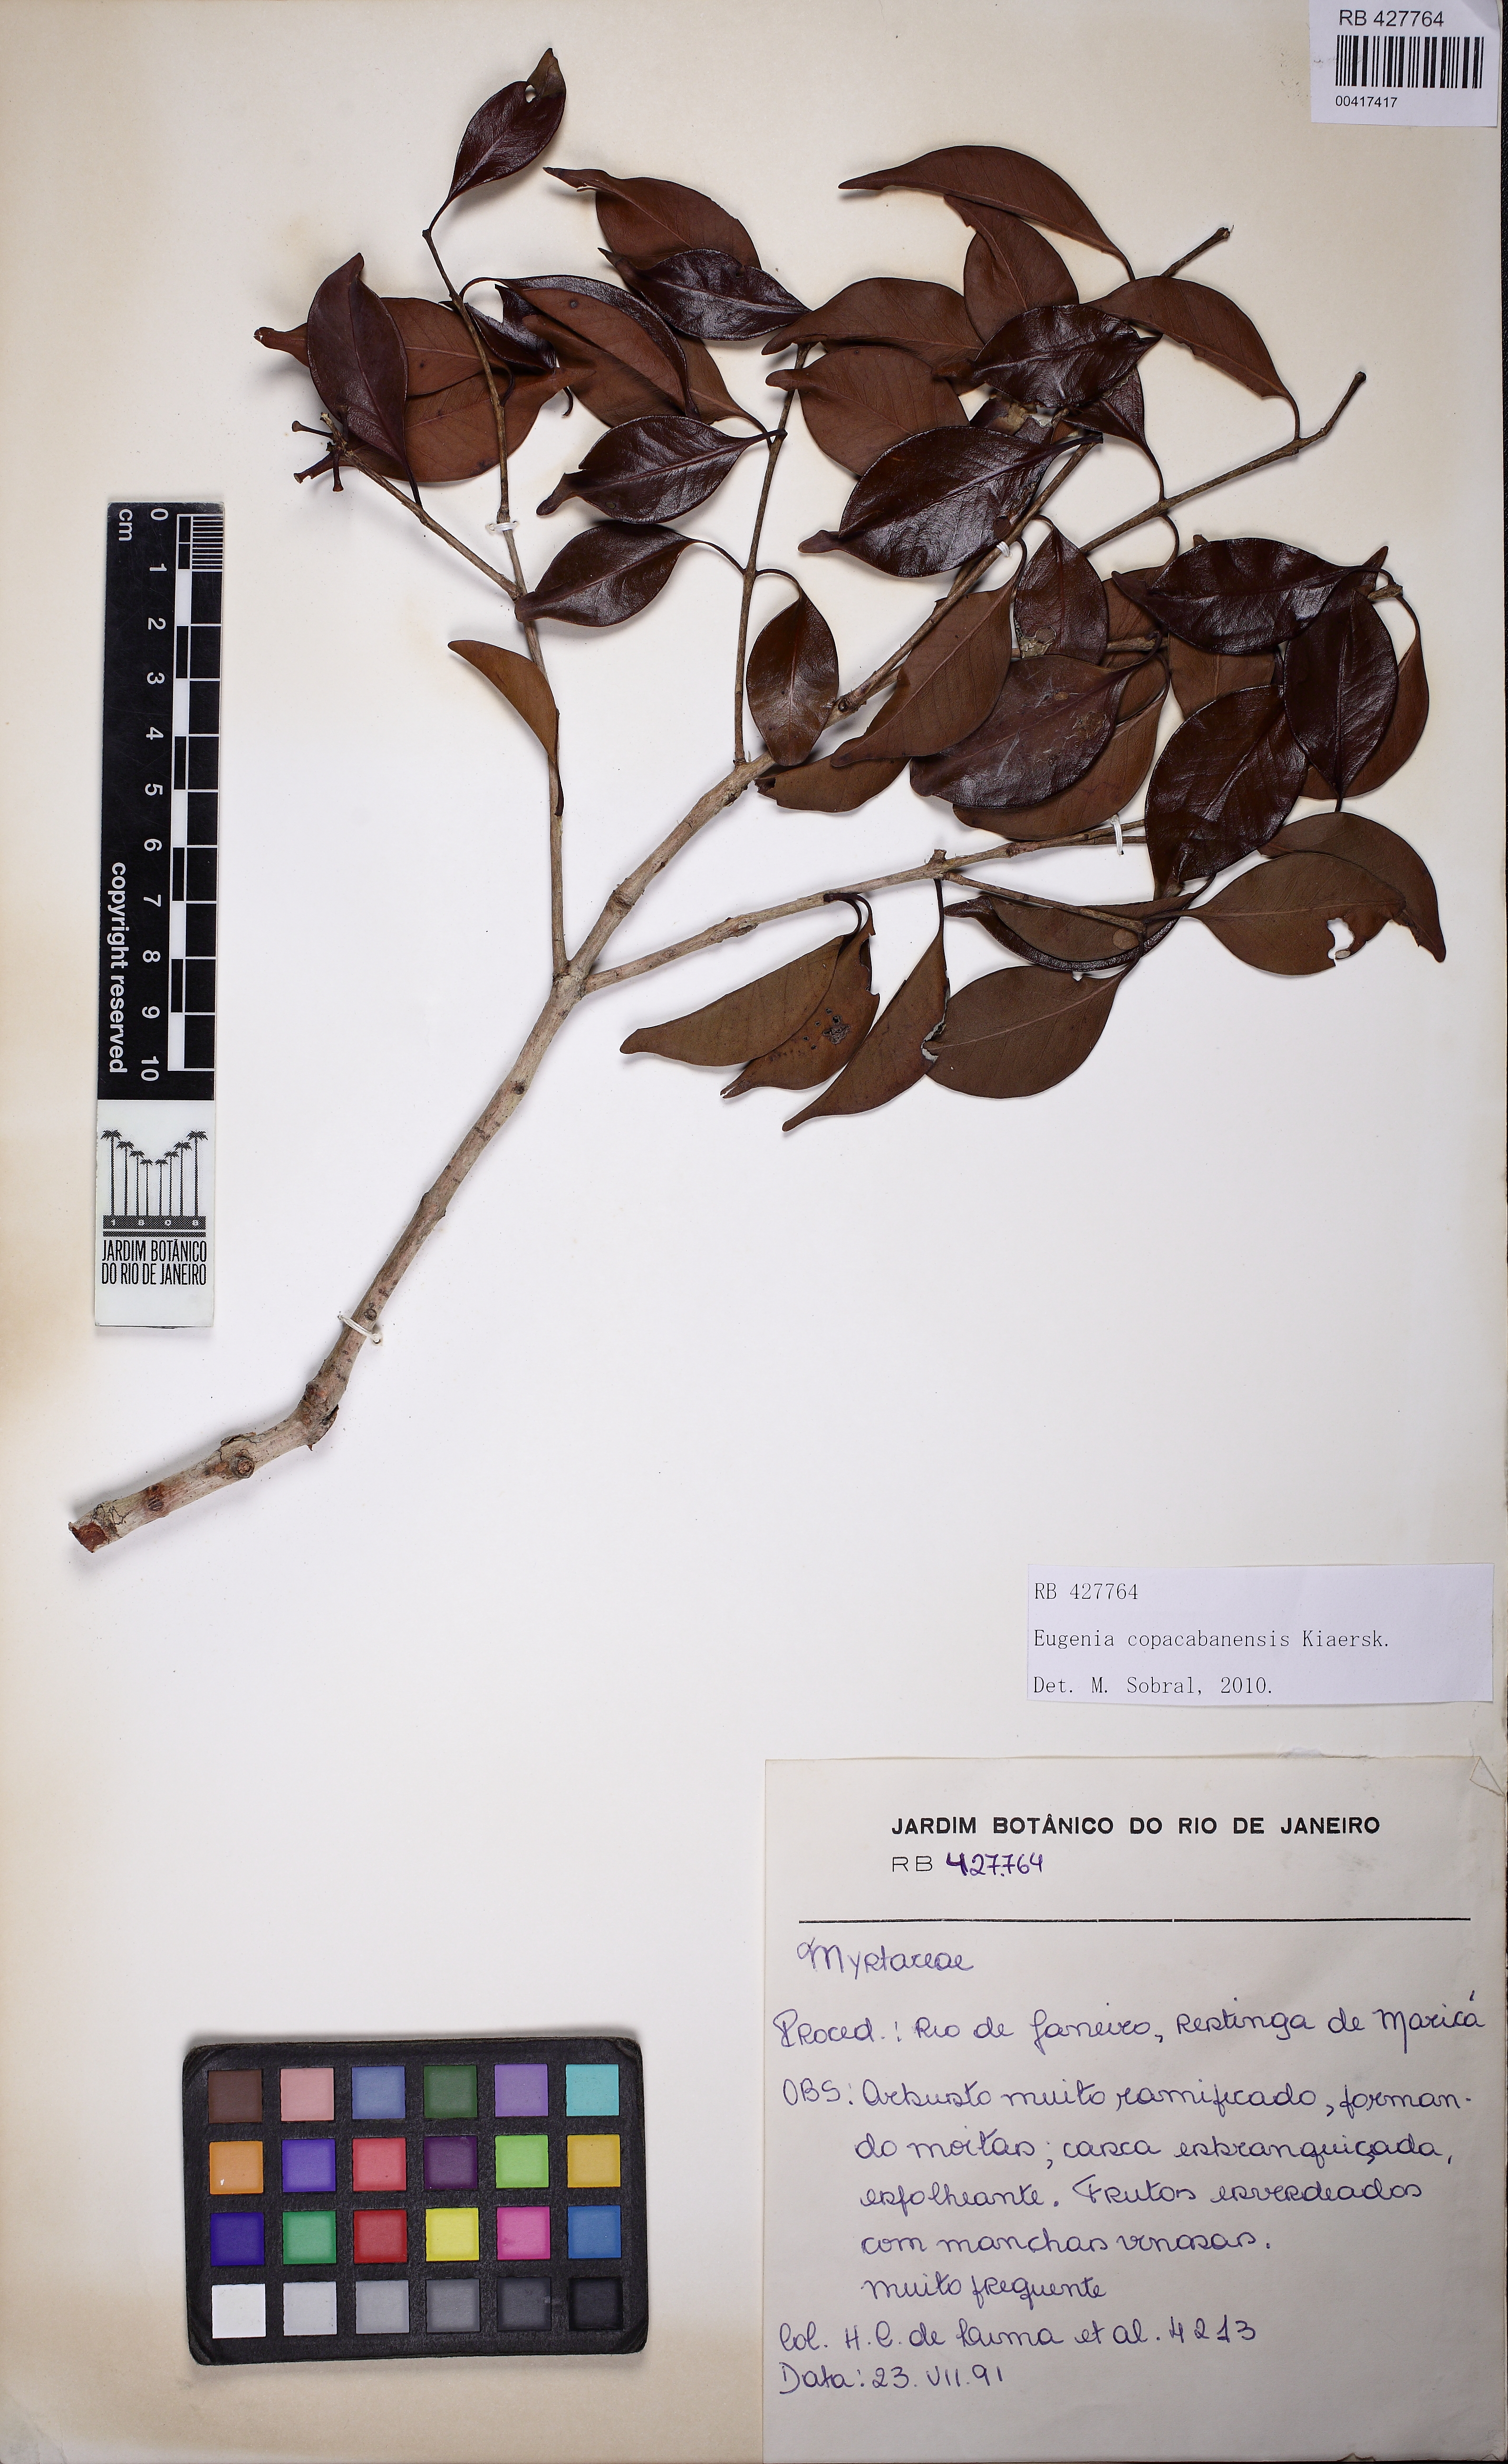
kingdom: Plantae
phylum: Tracheophyta
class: Magnoliopsida
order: Myrtales
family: Myrtaceae
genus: Eugenia
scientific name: Eugenia copacabanensis
